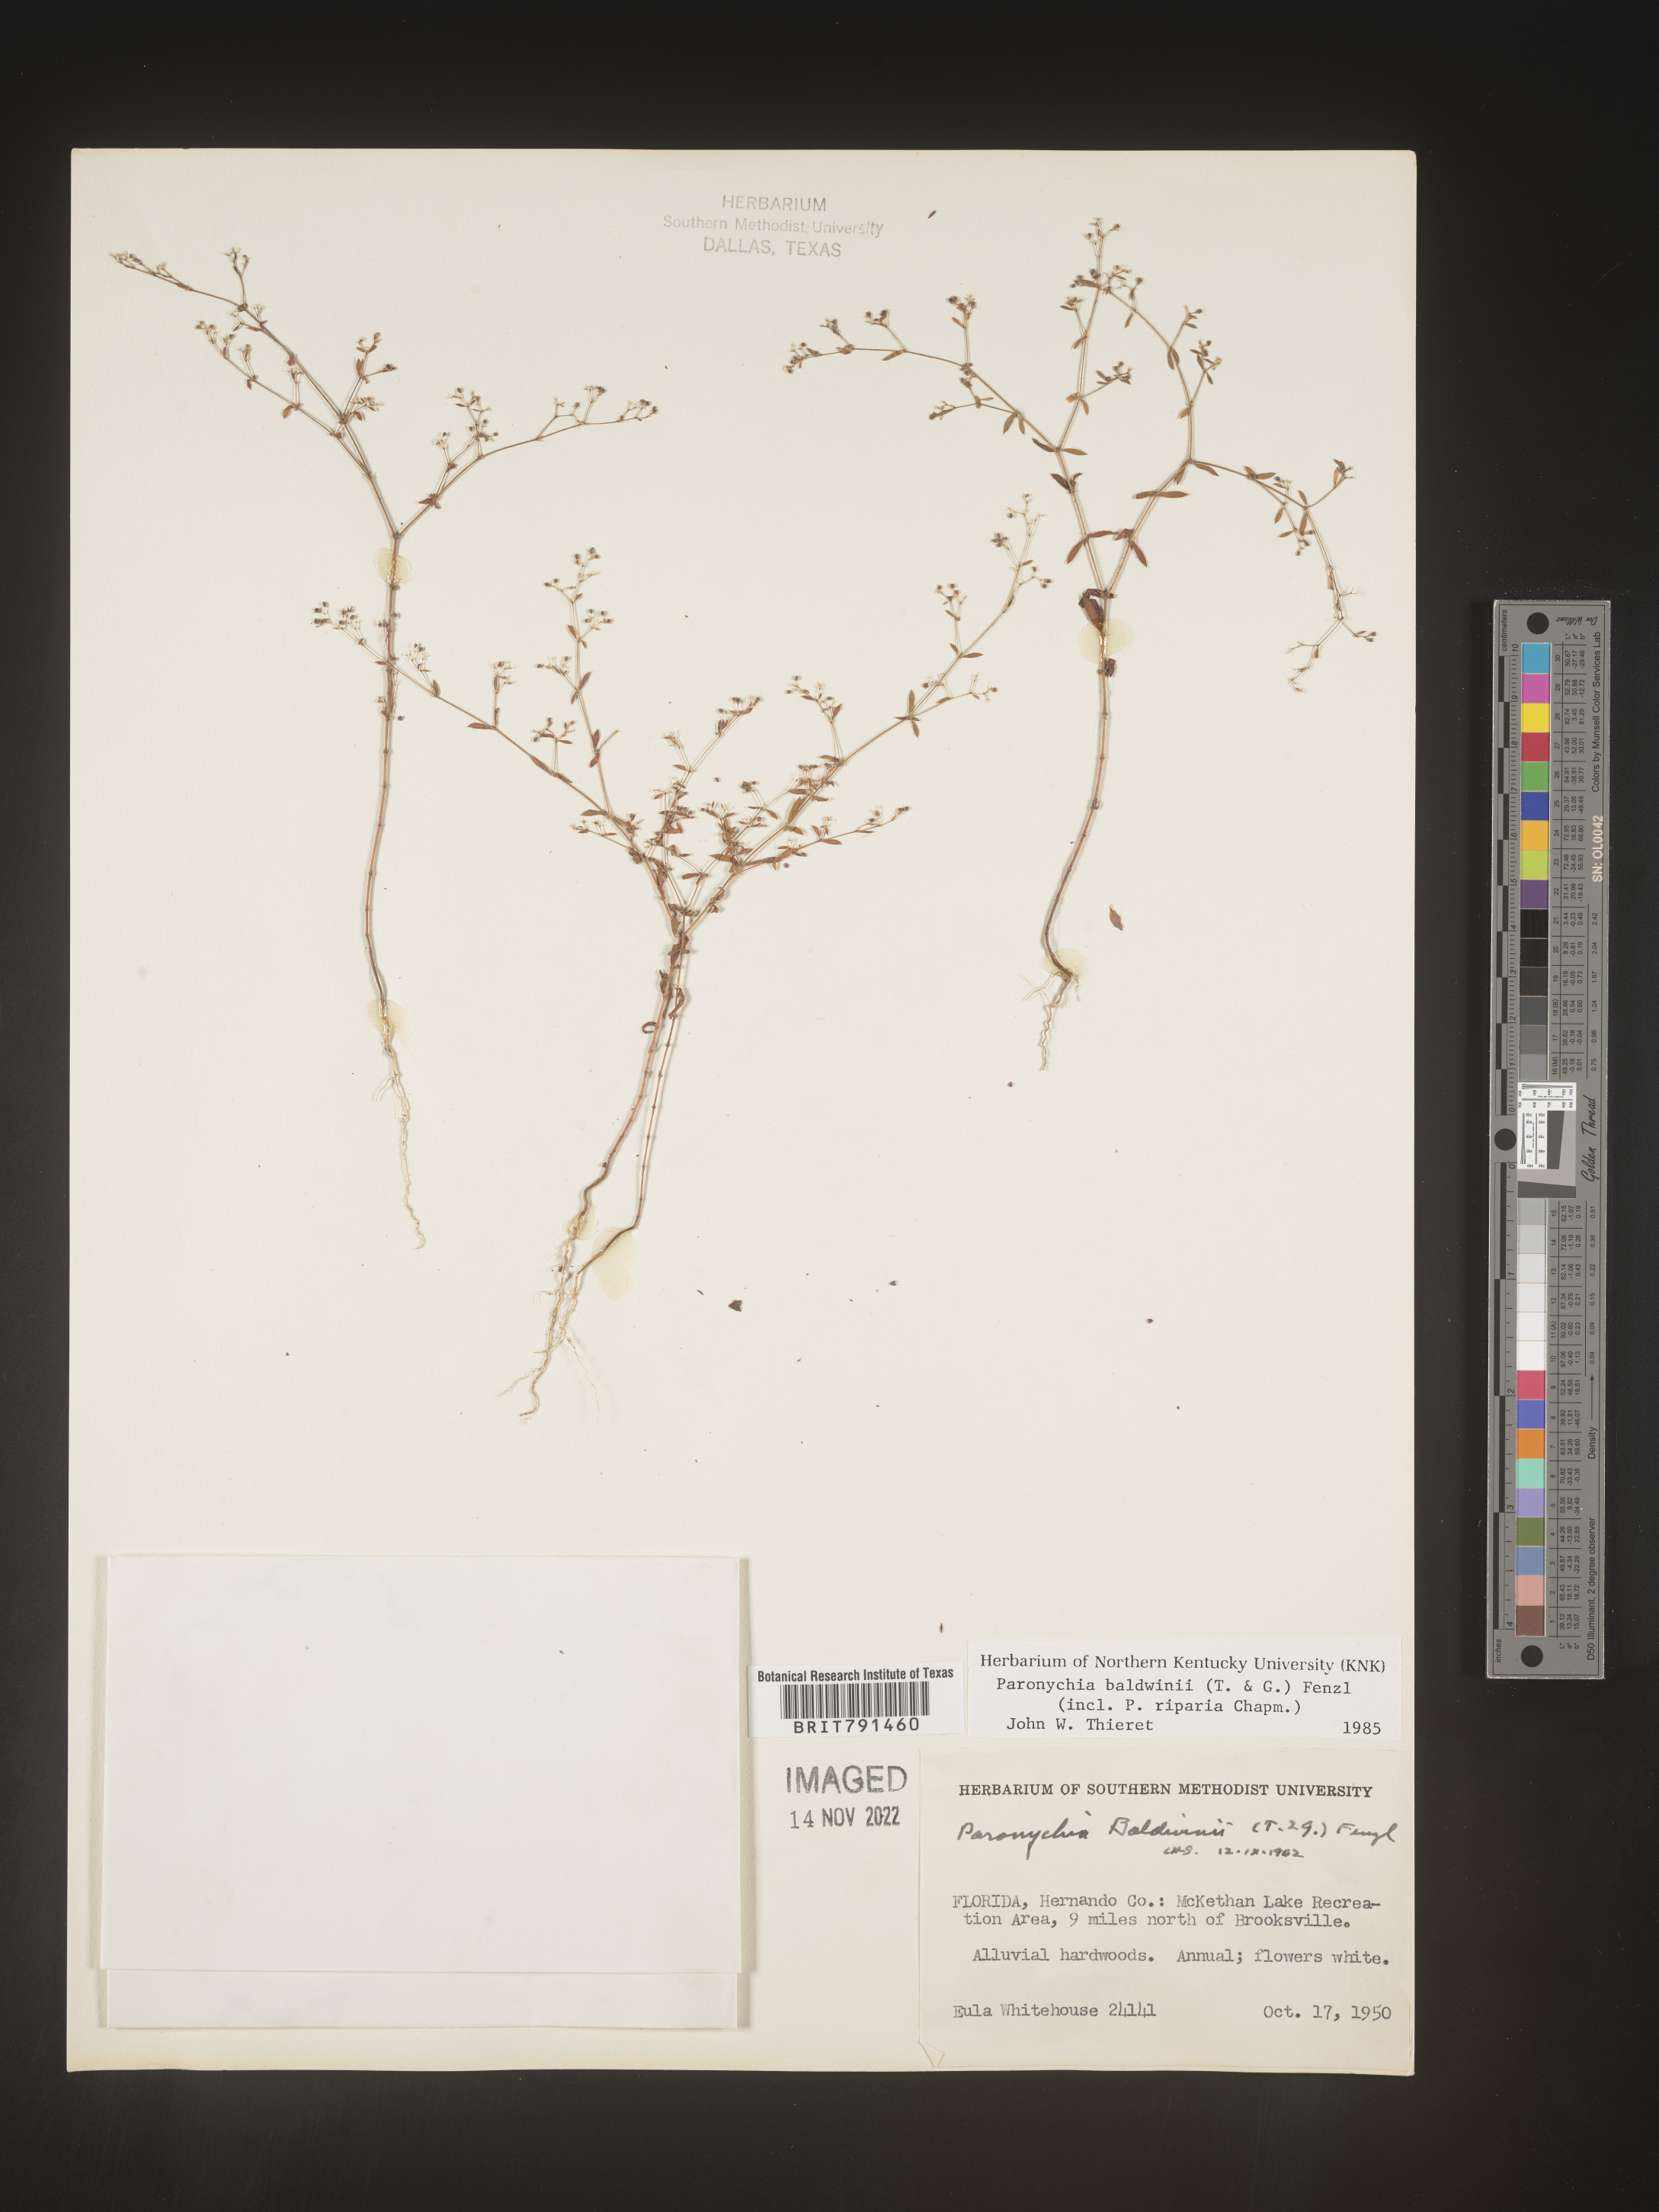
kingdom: Plantae
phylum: Tracheophyta
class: Magnoliopsida
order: Caryophyllales
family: Caryophyllaceae
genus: Paronychia
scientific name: Paronychia baldwinii
